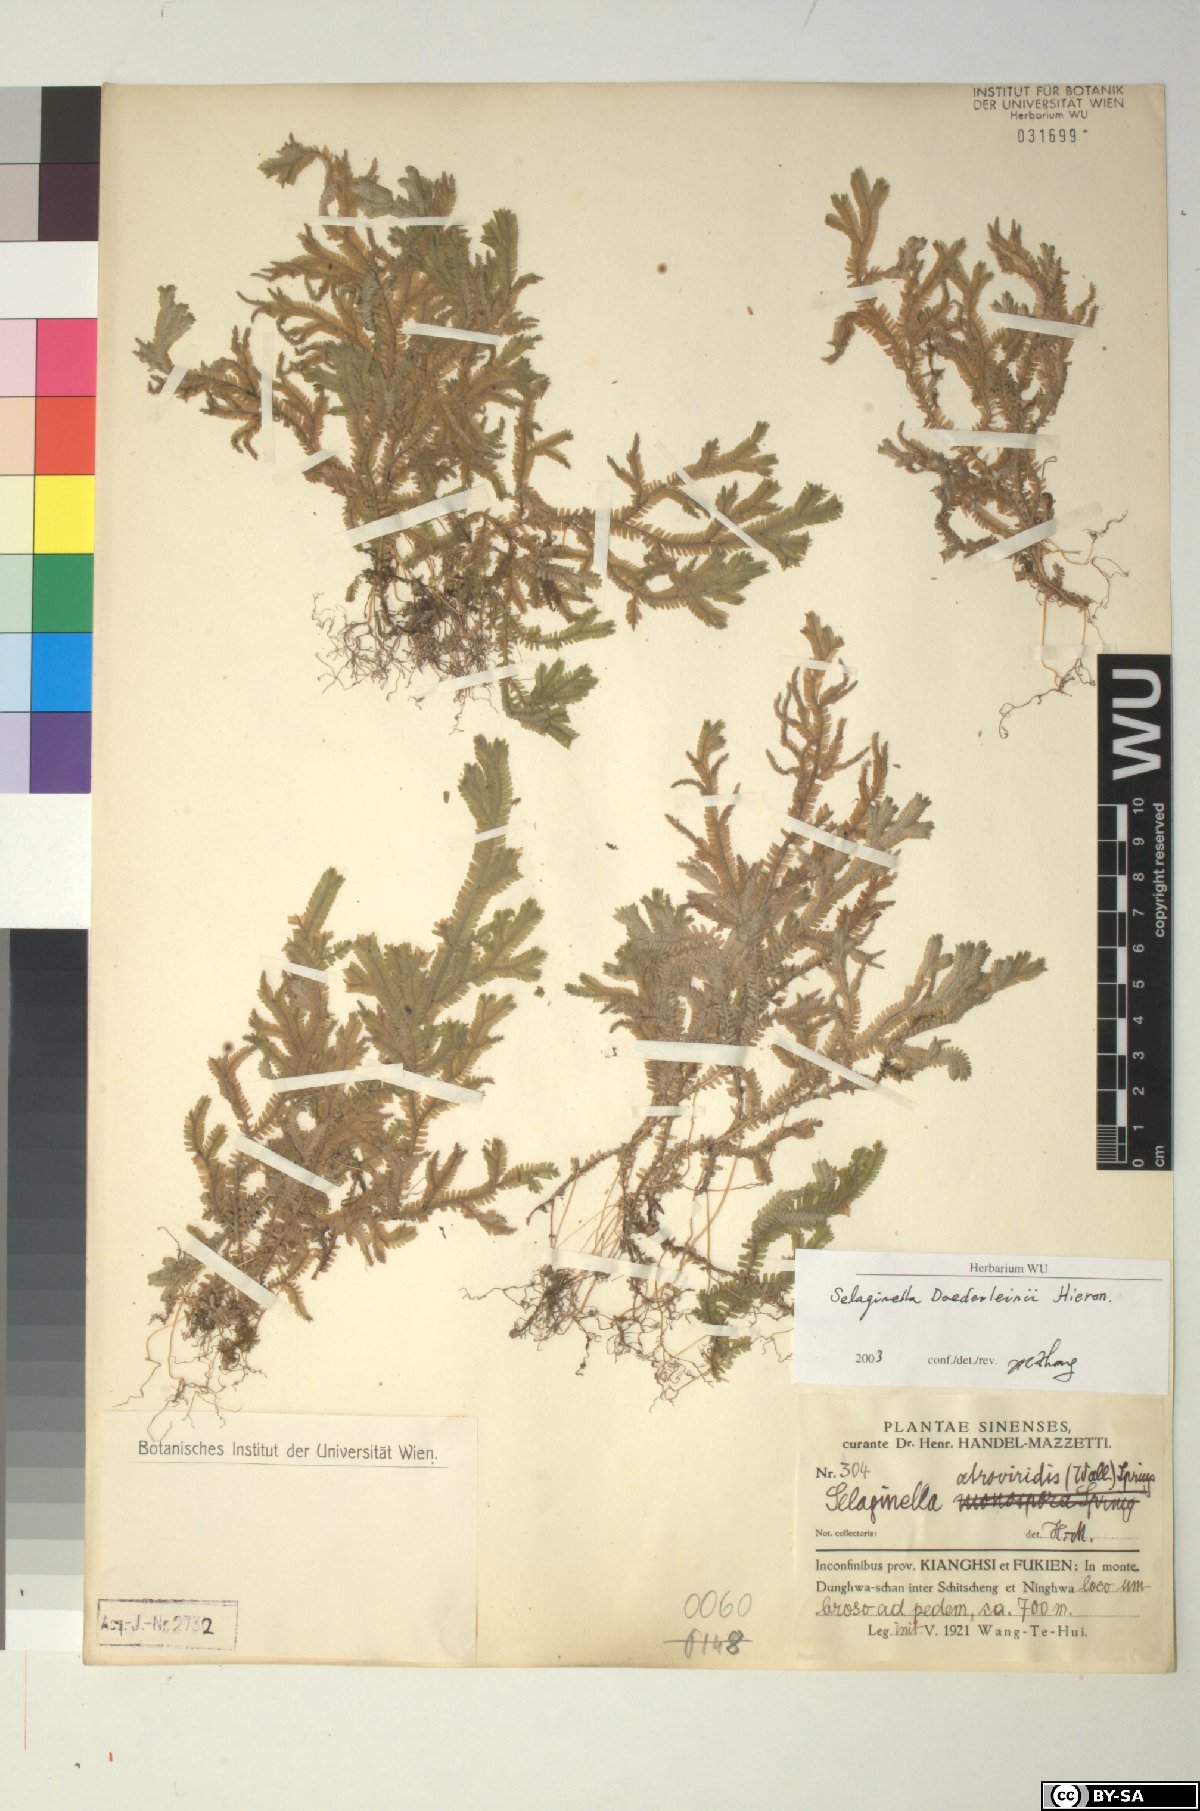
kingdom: Plantae
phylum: Tracheophyta
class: Lycopodiopsida
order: Selaginellales
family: Selaginellaceae
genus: Selaginella
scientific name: Selaginella doederleinii
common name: Greater selaginella
